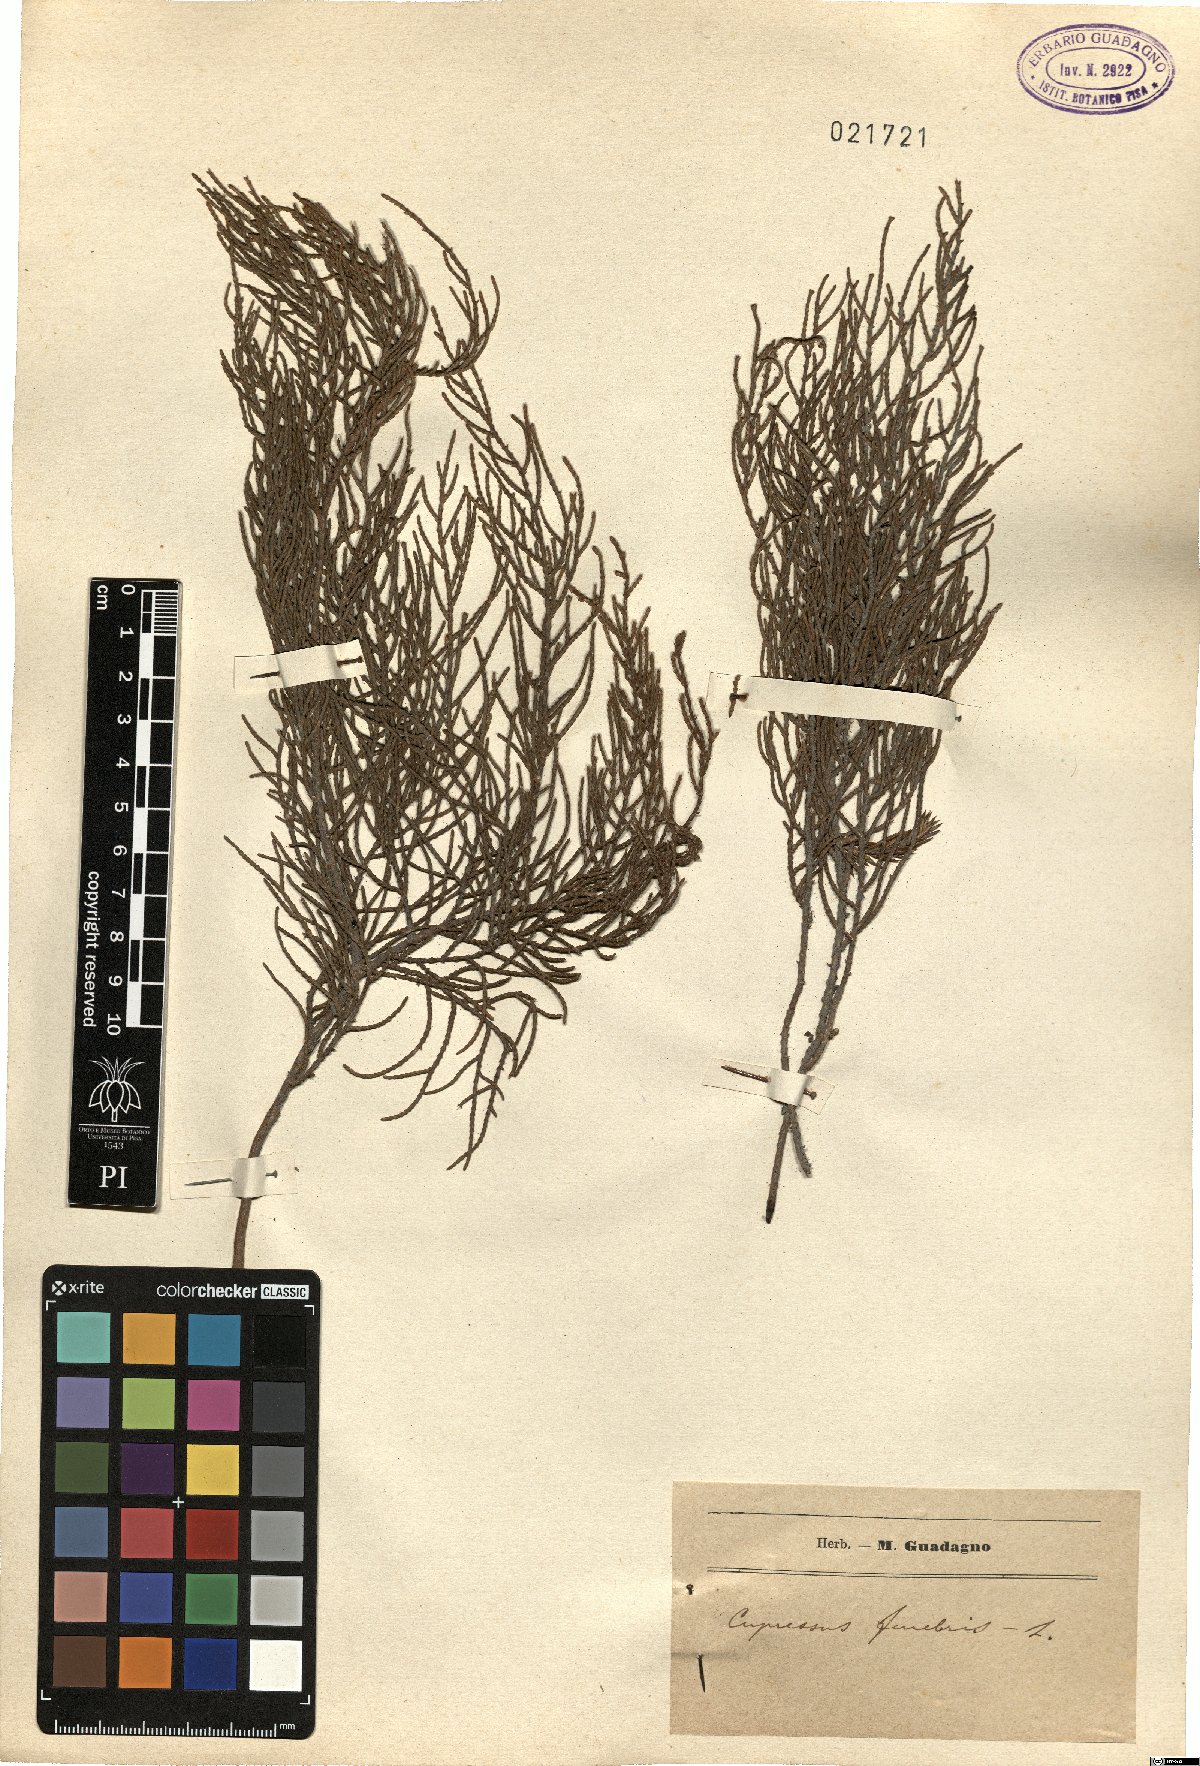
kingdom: Plantae
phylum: Tracheophyta
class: Pinopsida
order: Pinales
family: Cupressaceae
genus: Cupressus
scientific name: Cupressus funebris
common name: Chinese weeping cypress
